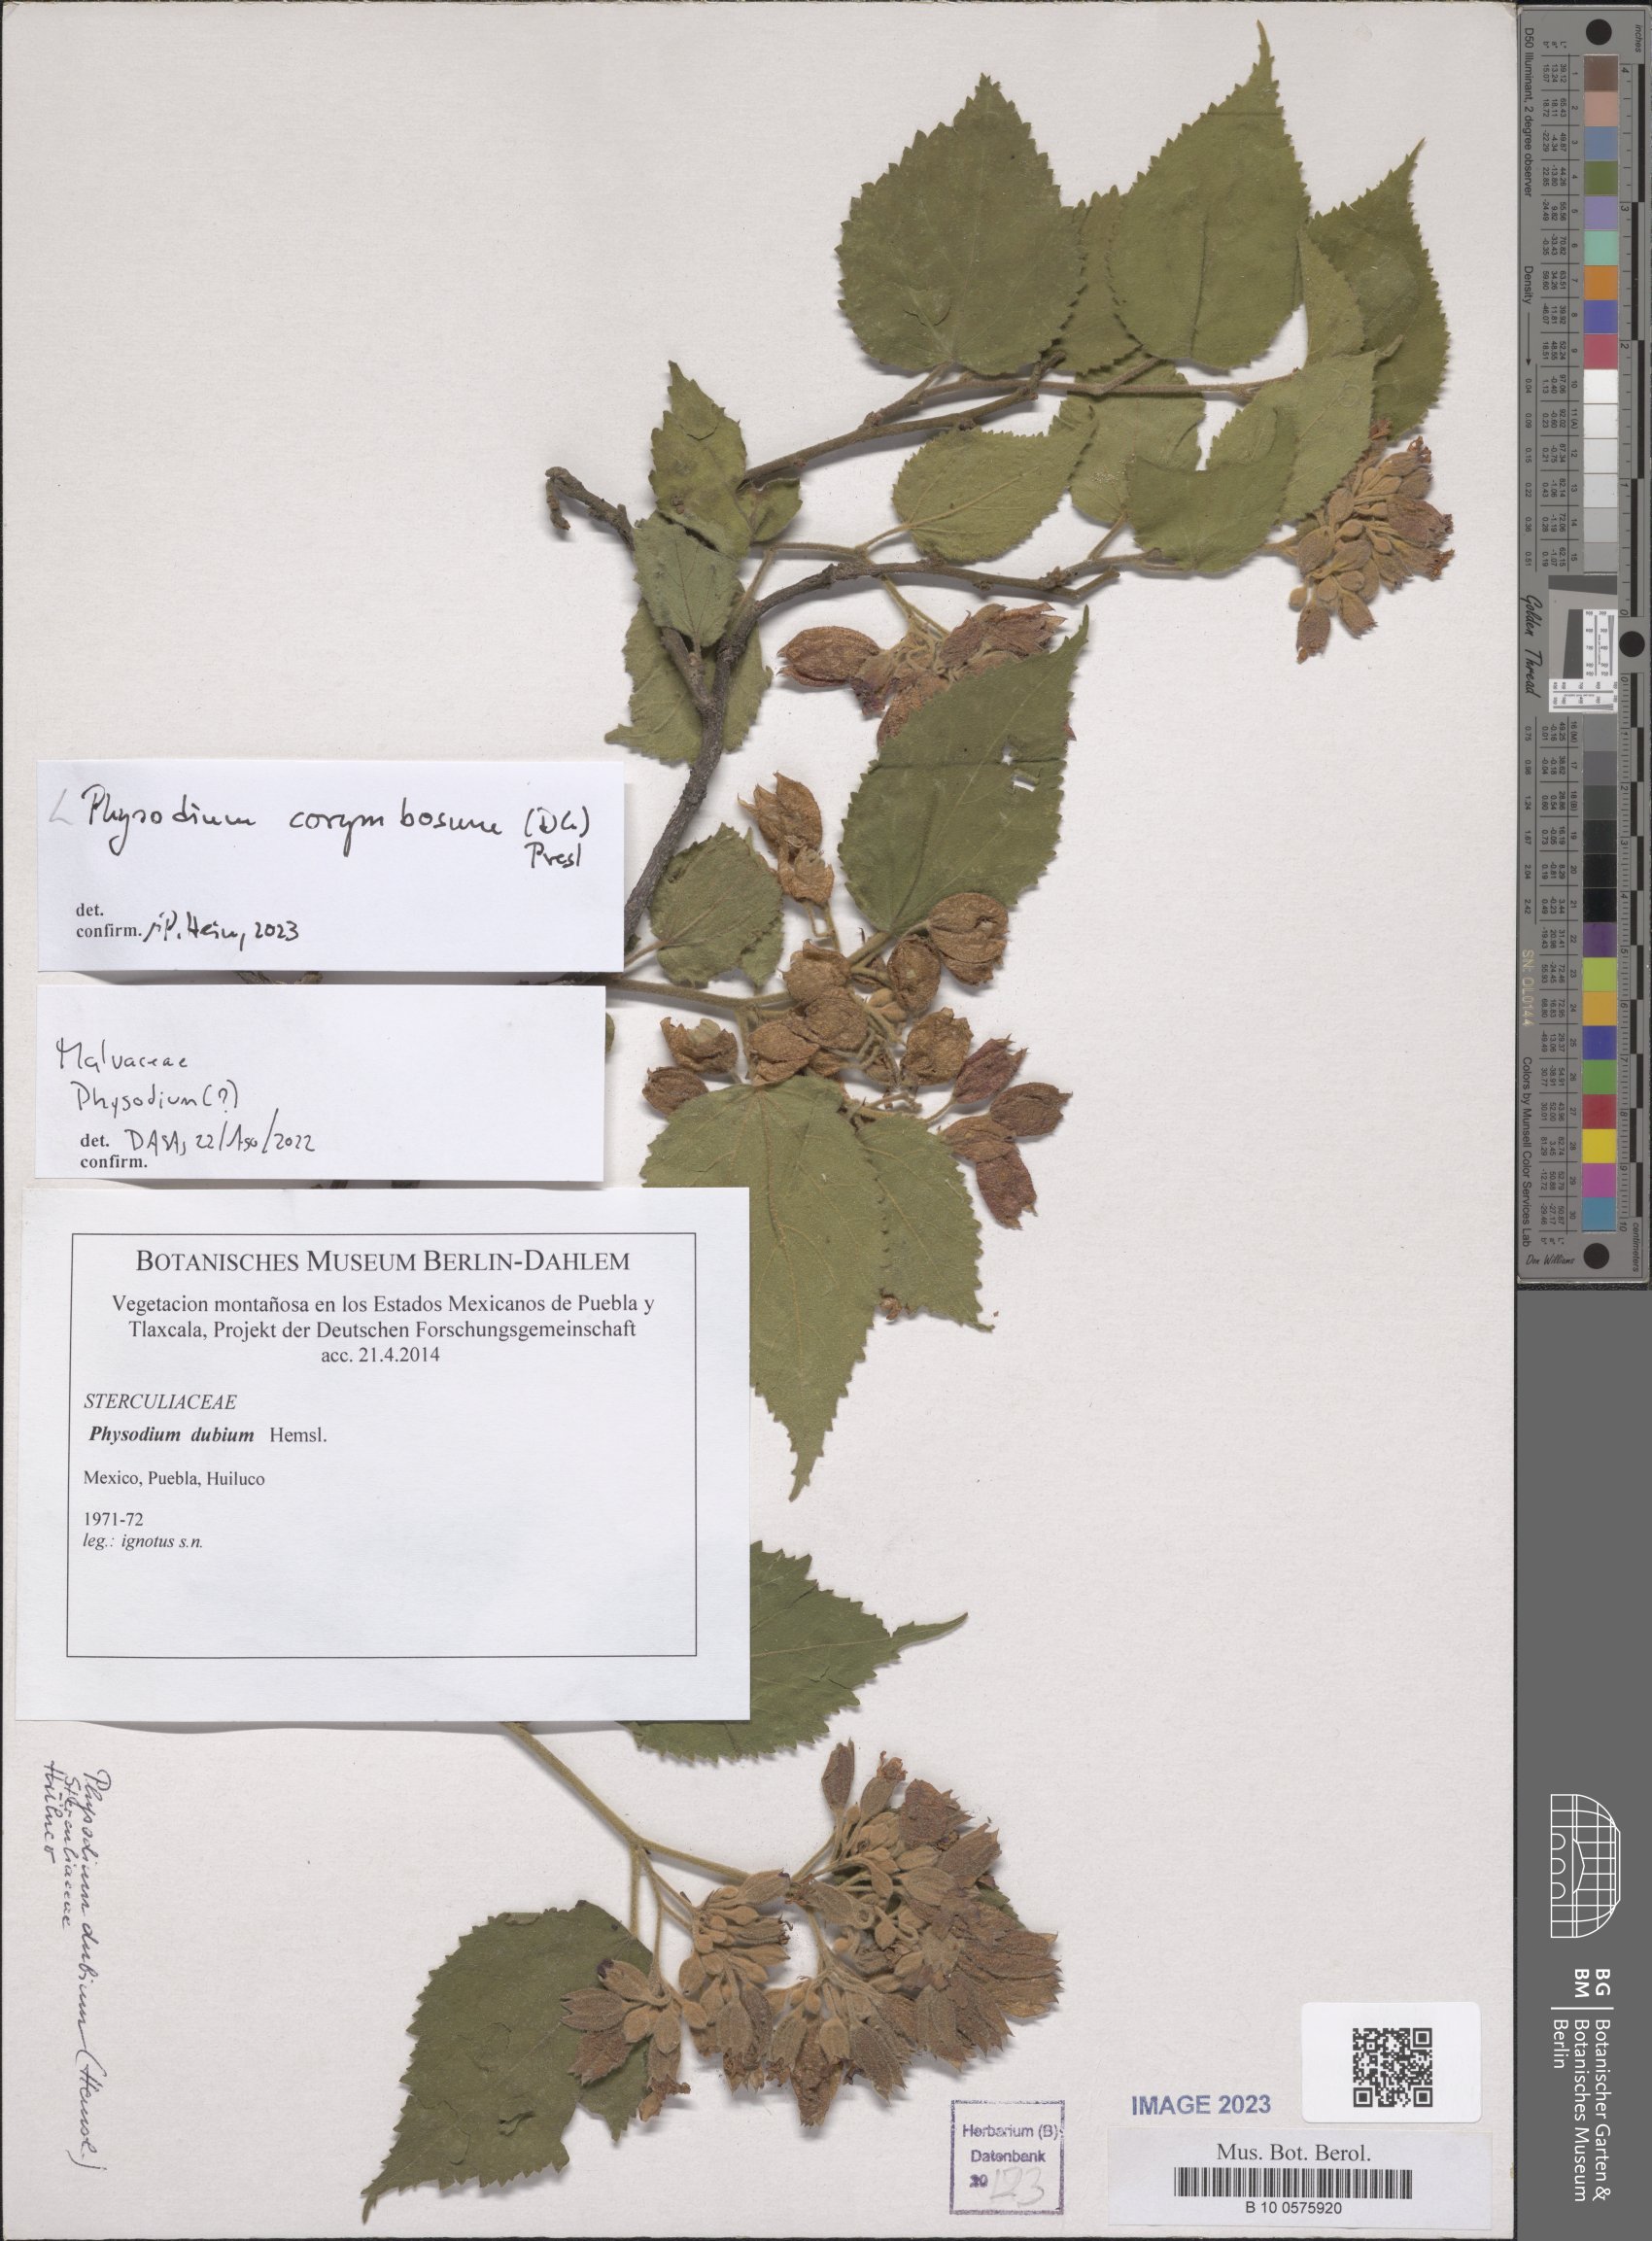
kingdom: Plantae
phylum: Tracheophyta
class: Magnoliopsida
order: Malvales
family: Malvaceae
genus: Physodium
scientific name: Physodium corymbosum
